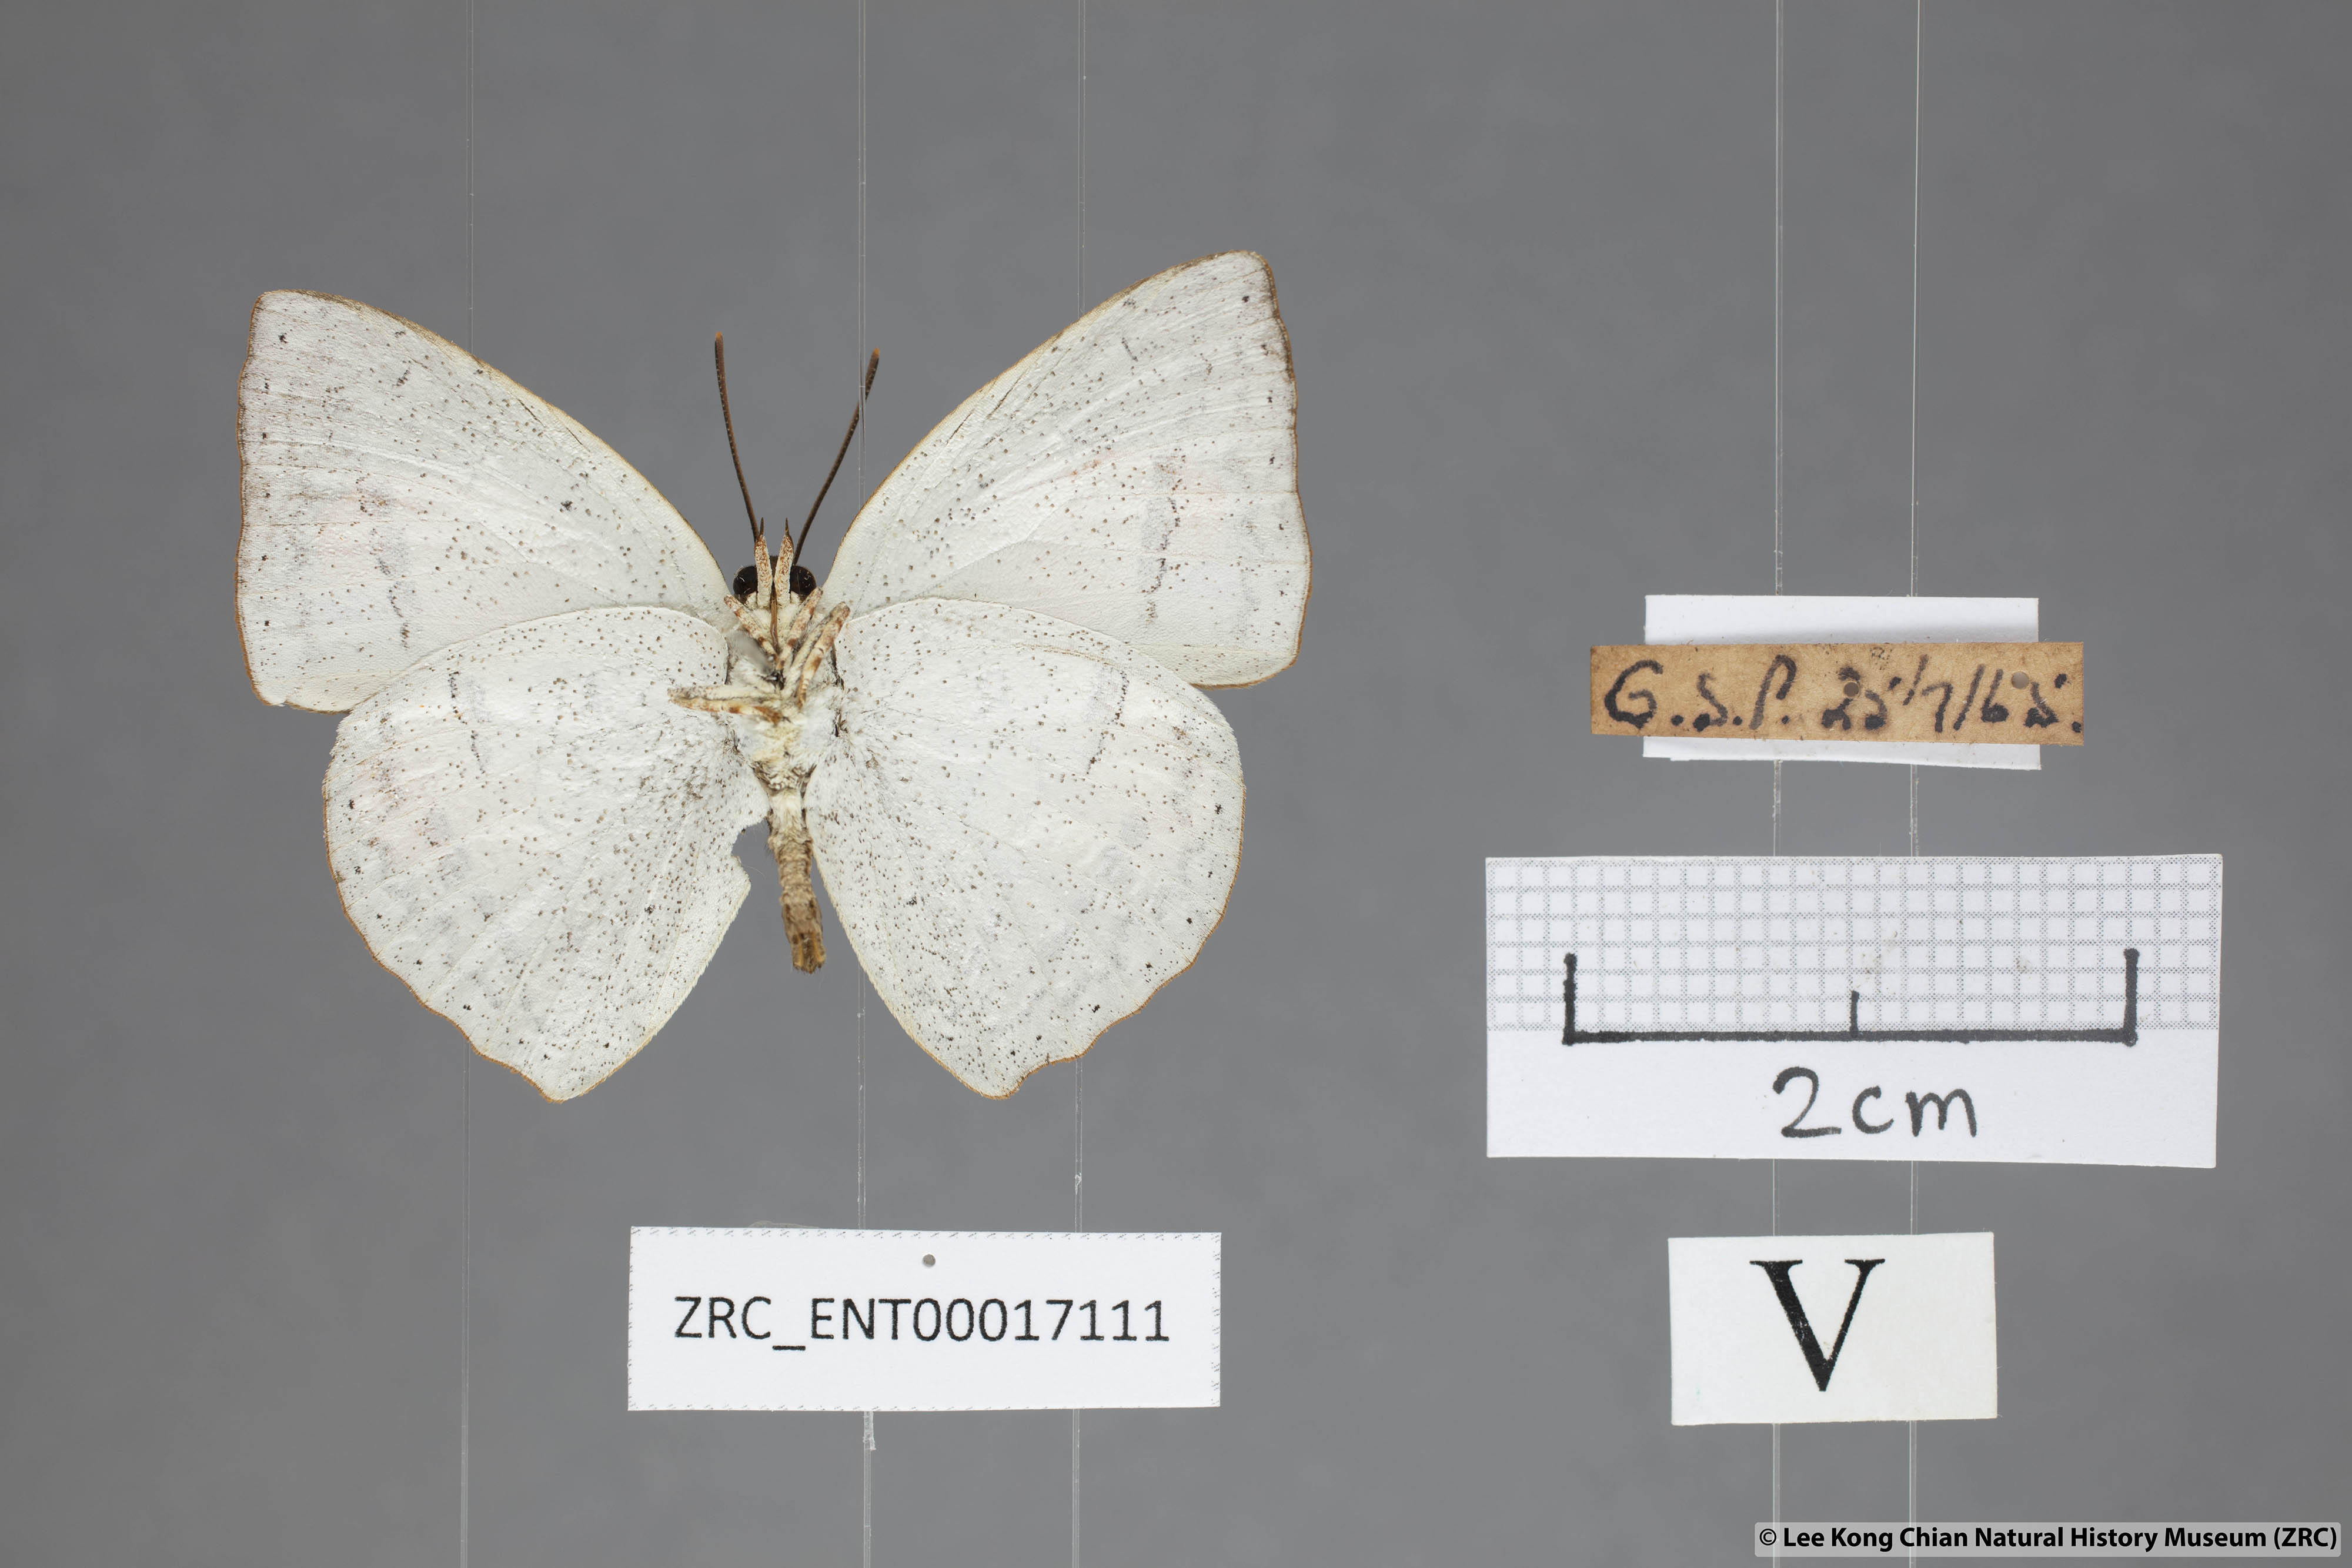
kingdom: Animalia
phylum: Arthropoda
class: Insecta
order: Lepidoptera
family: Lycaenidae
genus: Curetis
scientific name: Curetis bulis
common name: Bright sunbeam
